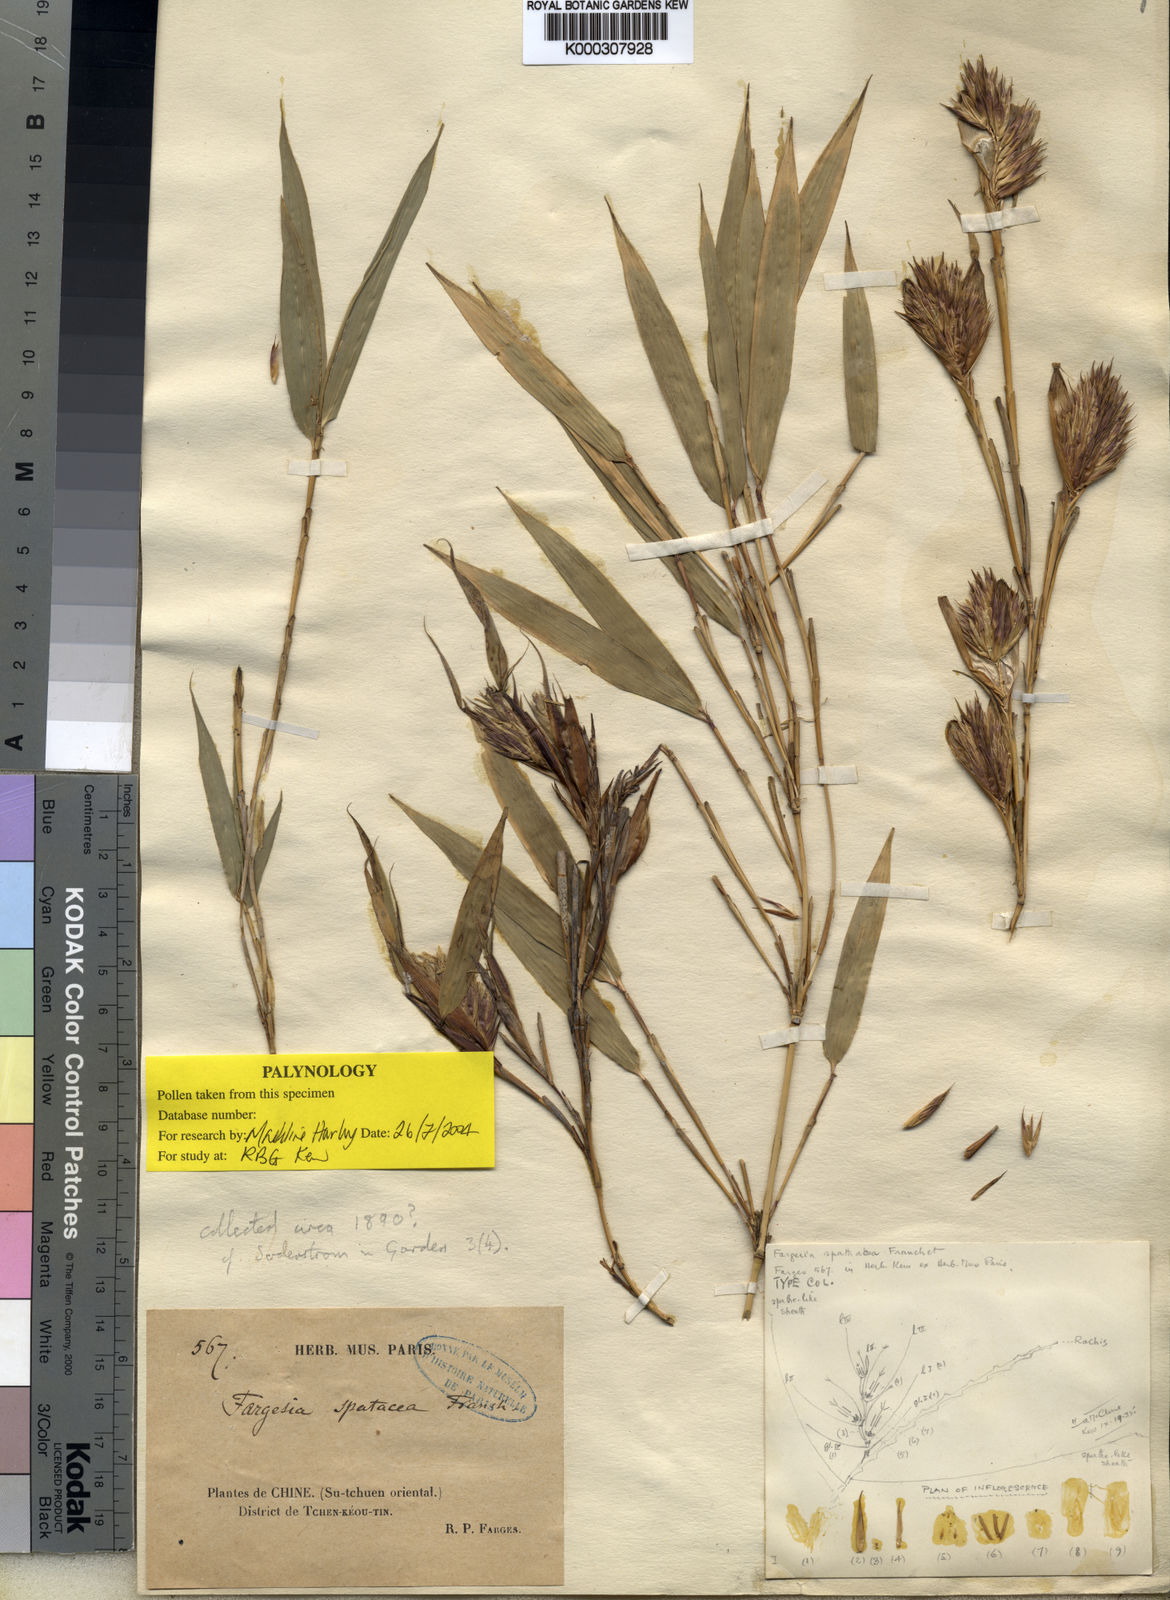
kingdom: Plantae
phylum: Tracheophyta
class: Liliopsida
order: Poales
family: Poaceae
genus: Fargesia
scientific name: Fargesia spathacea
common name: Chinese fountain-bamboo
